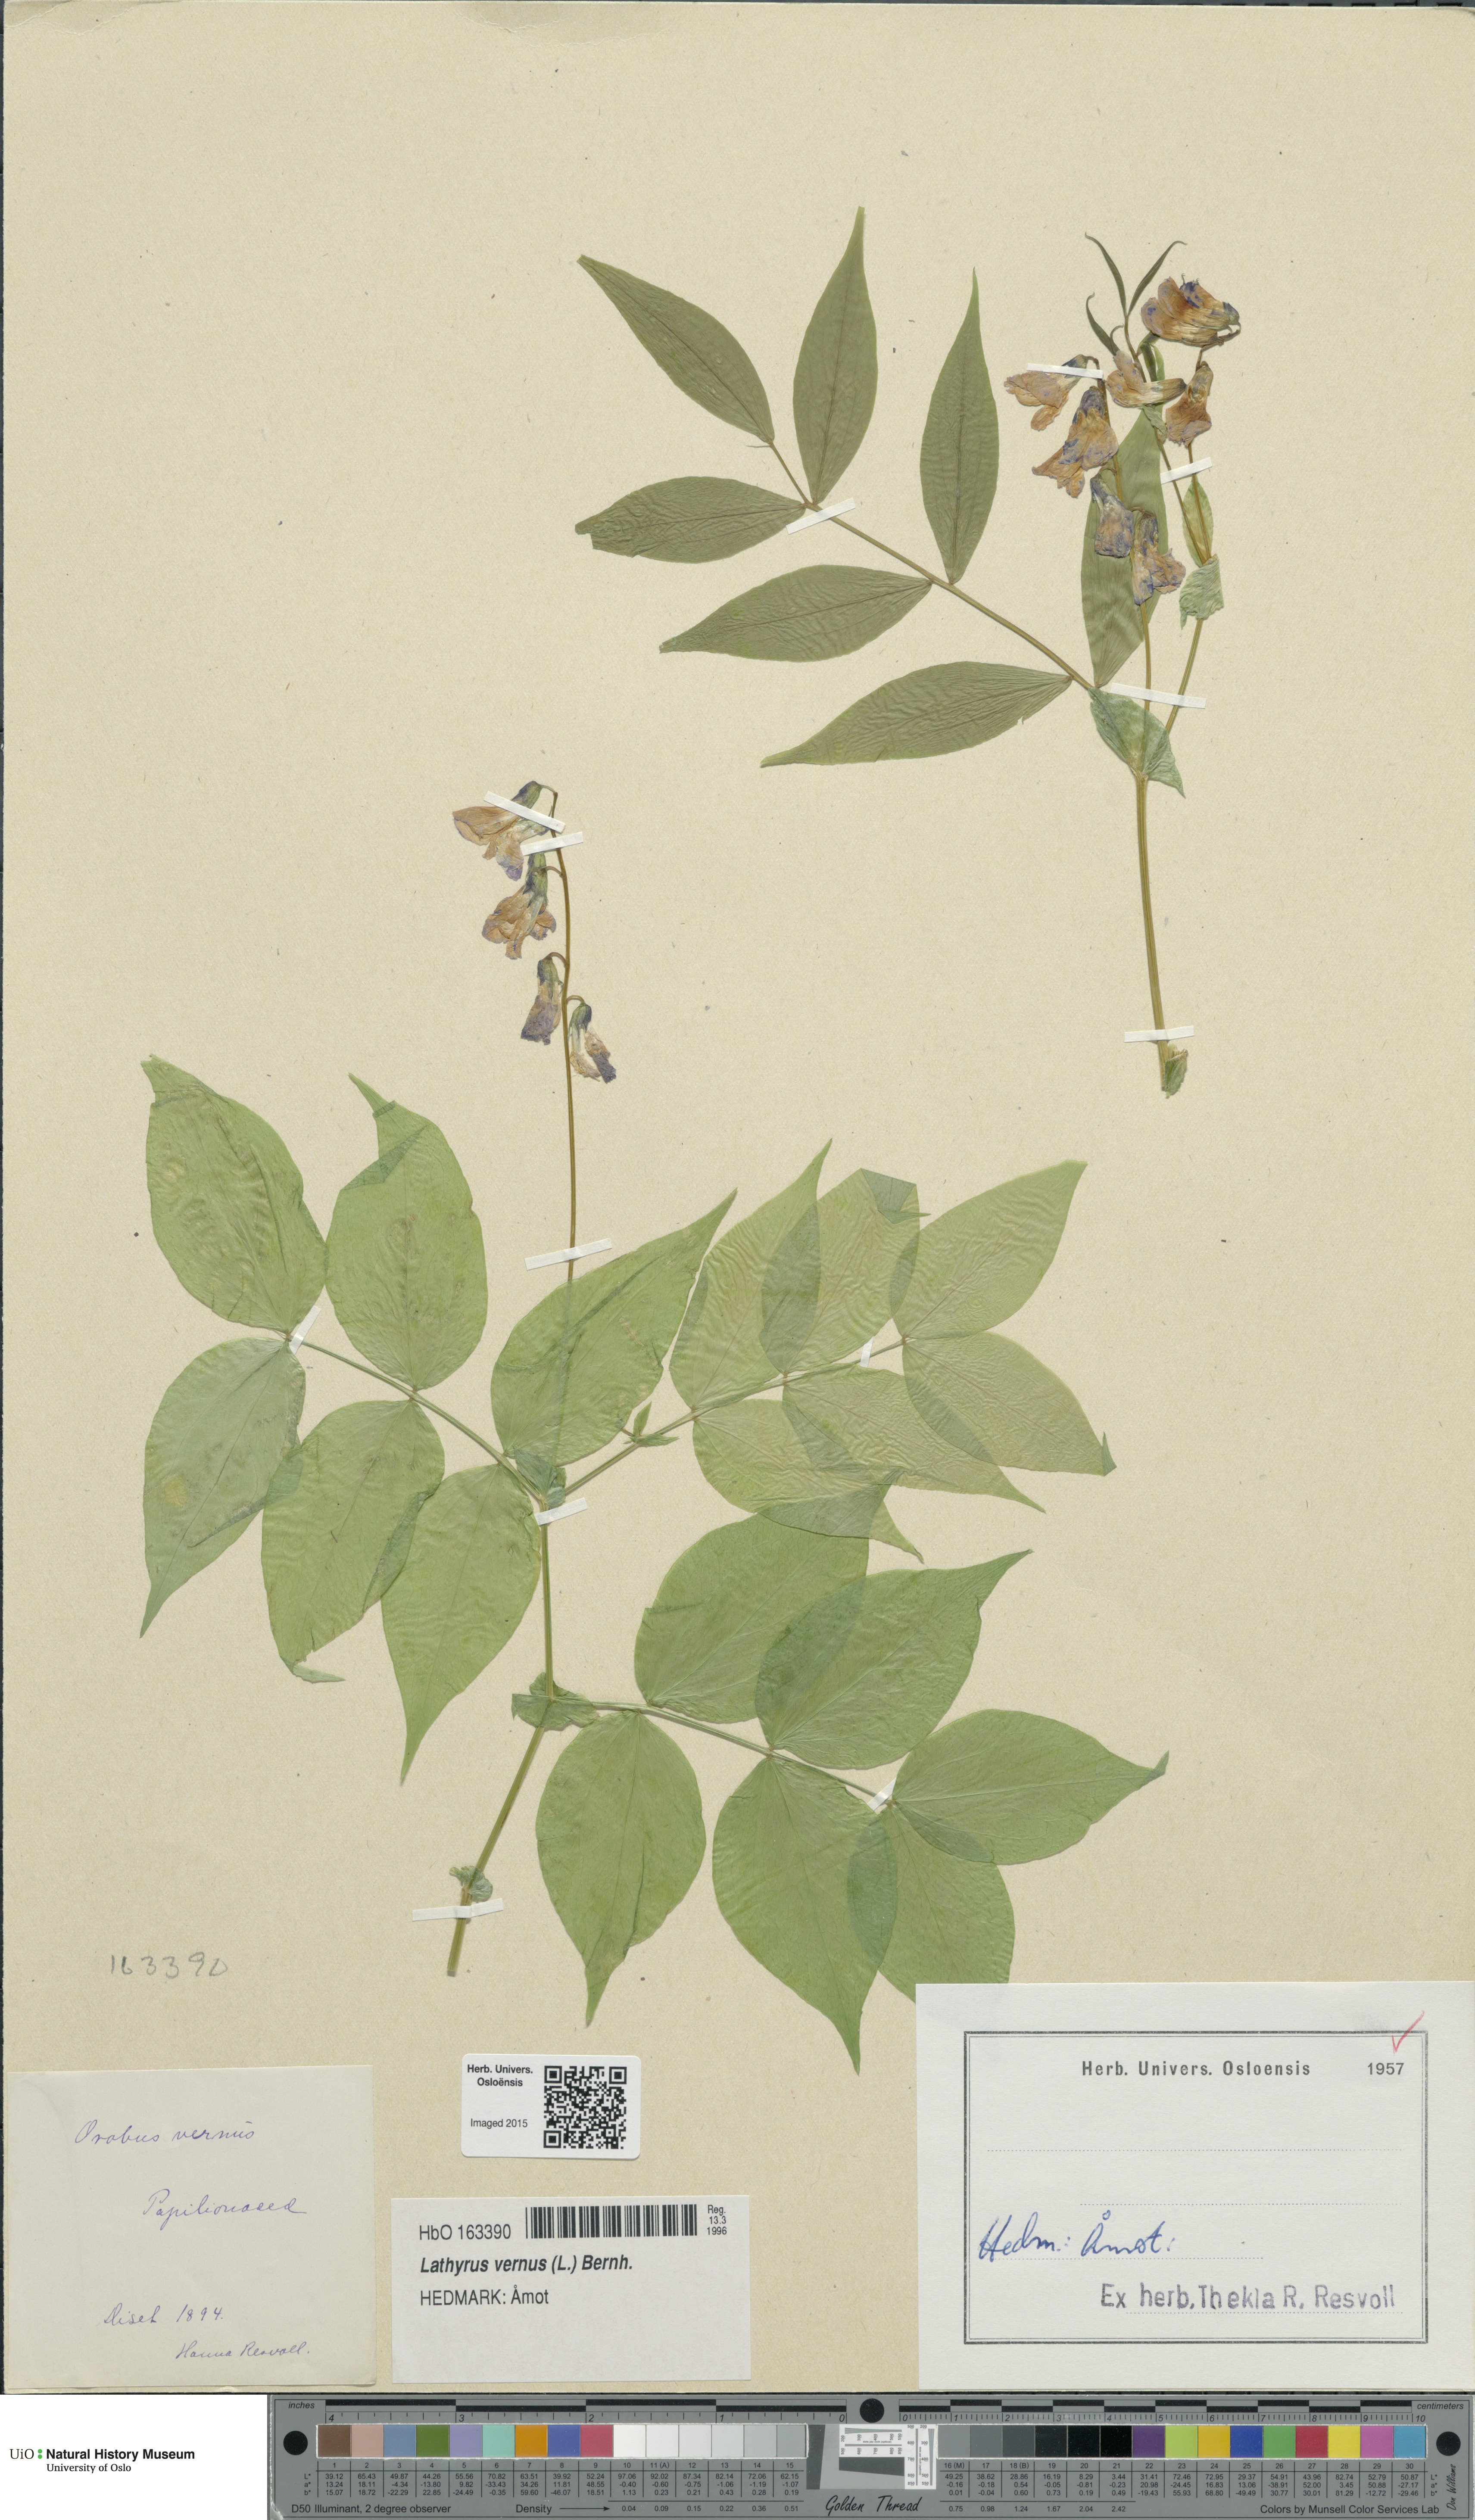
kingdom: Plantae
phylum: Tracheophyta
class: Magnoliopsida
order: Fabales
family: Fabaceae
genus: Lathyrus
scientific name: Lathyrus vernus
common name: Spring pea
